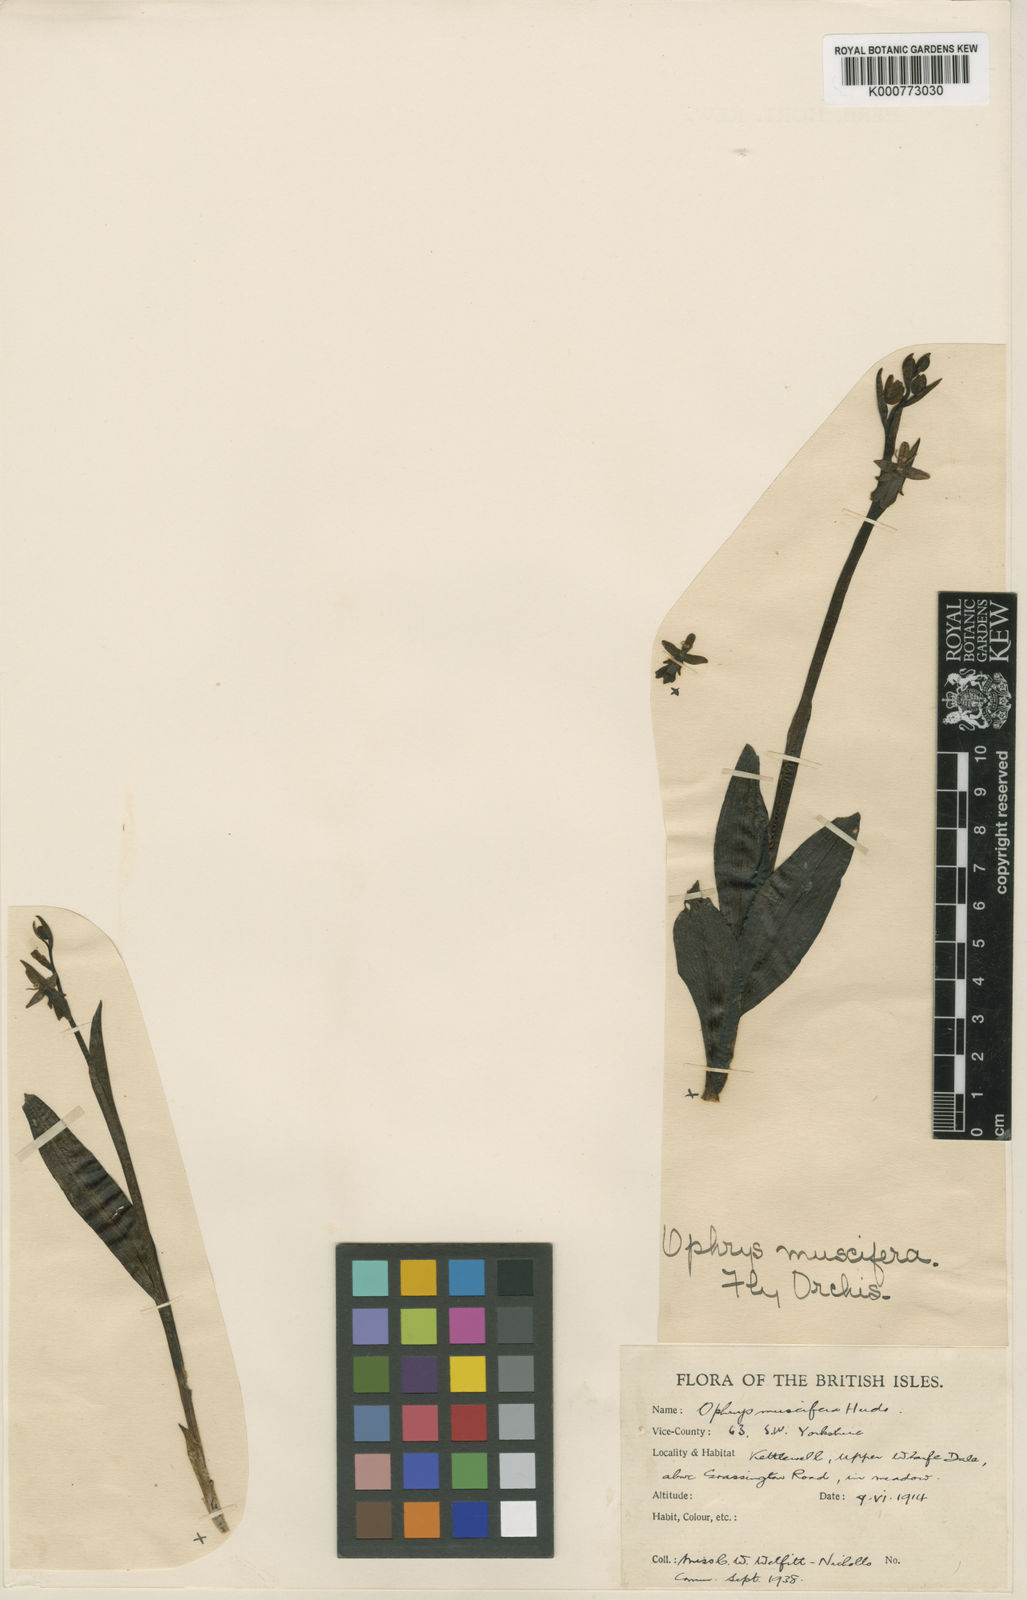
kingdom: Plantae
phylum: Tracheophyta
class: Liliopsida
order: Asparagales
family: Orchidaceae
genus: Ophrys
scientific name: Ophrys insectifera
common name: Fly orchid
